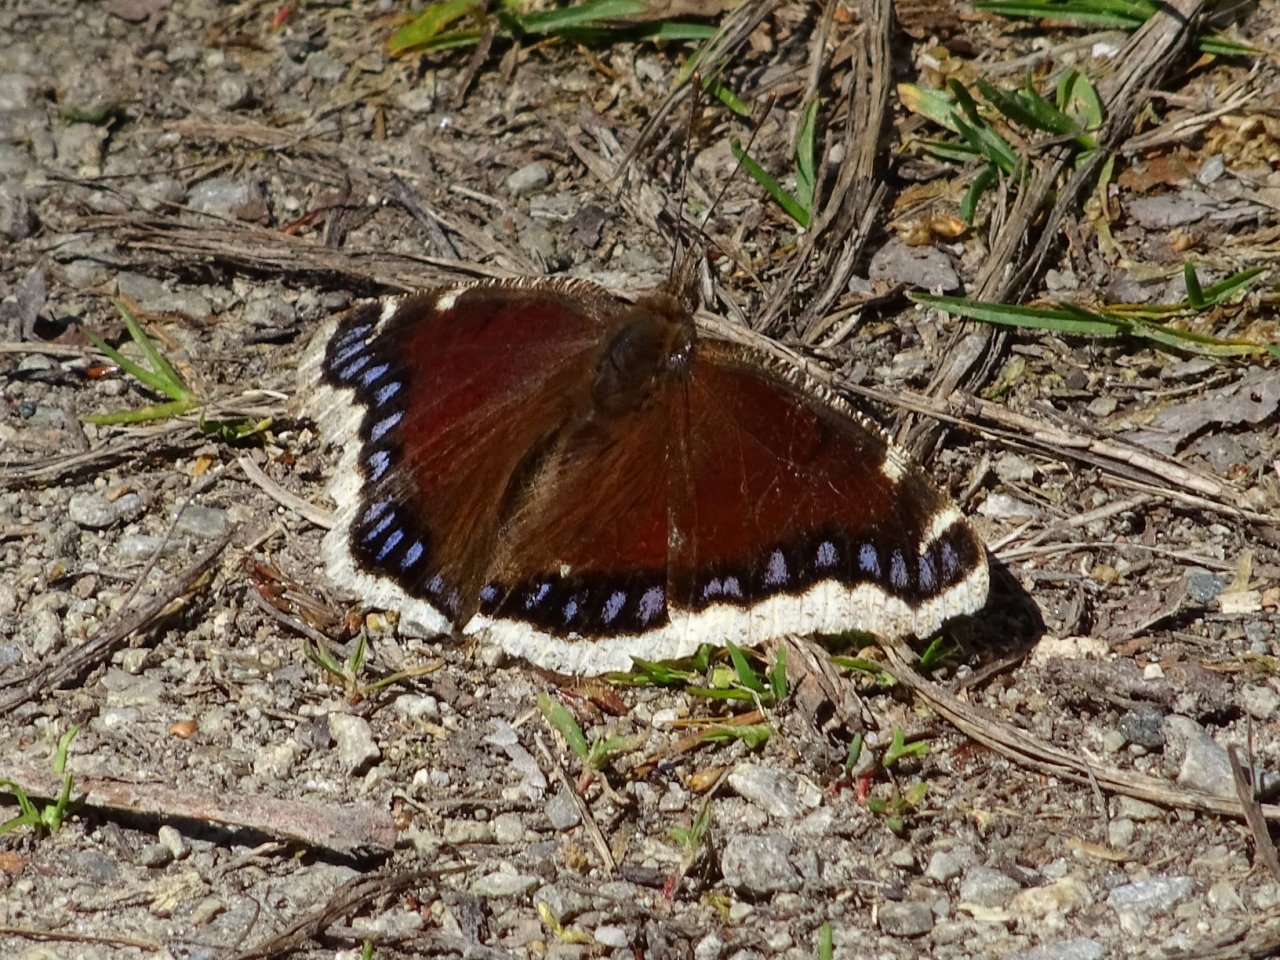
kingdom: Animalia
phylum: Arthropoda
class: Insecta
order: Lepidoptera
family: Nymphalidae
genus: Nymphalis
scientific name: Nymphalis antiopa
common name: Mourning Cloak
